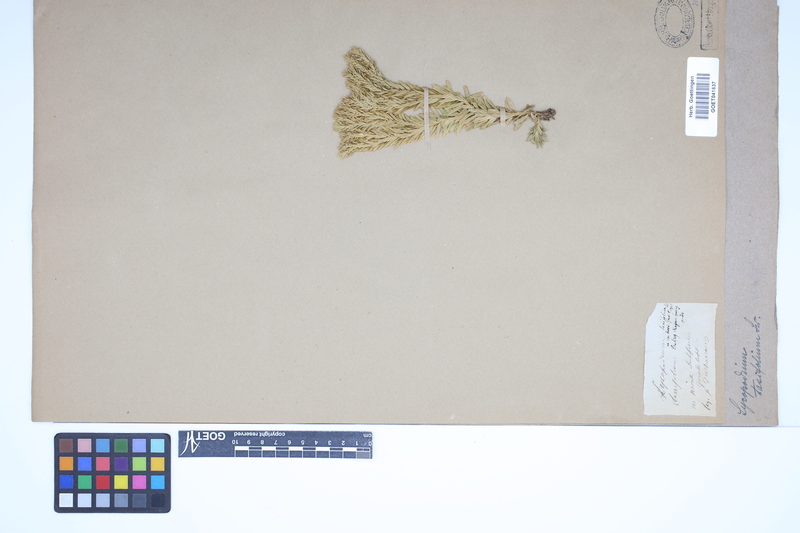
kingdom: Plantae
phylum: Tracheophyta
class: Lycopodiopsida
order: Lycopodiales
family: Lycopodiaceae
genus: Phlegmariurus
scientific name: Phlegmariurus taxifolius
